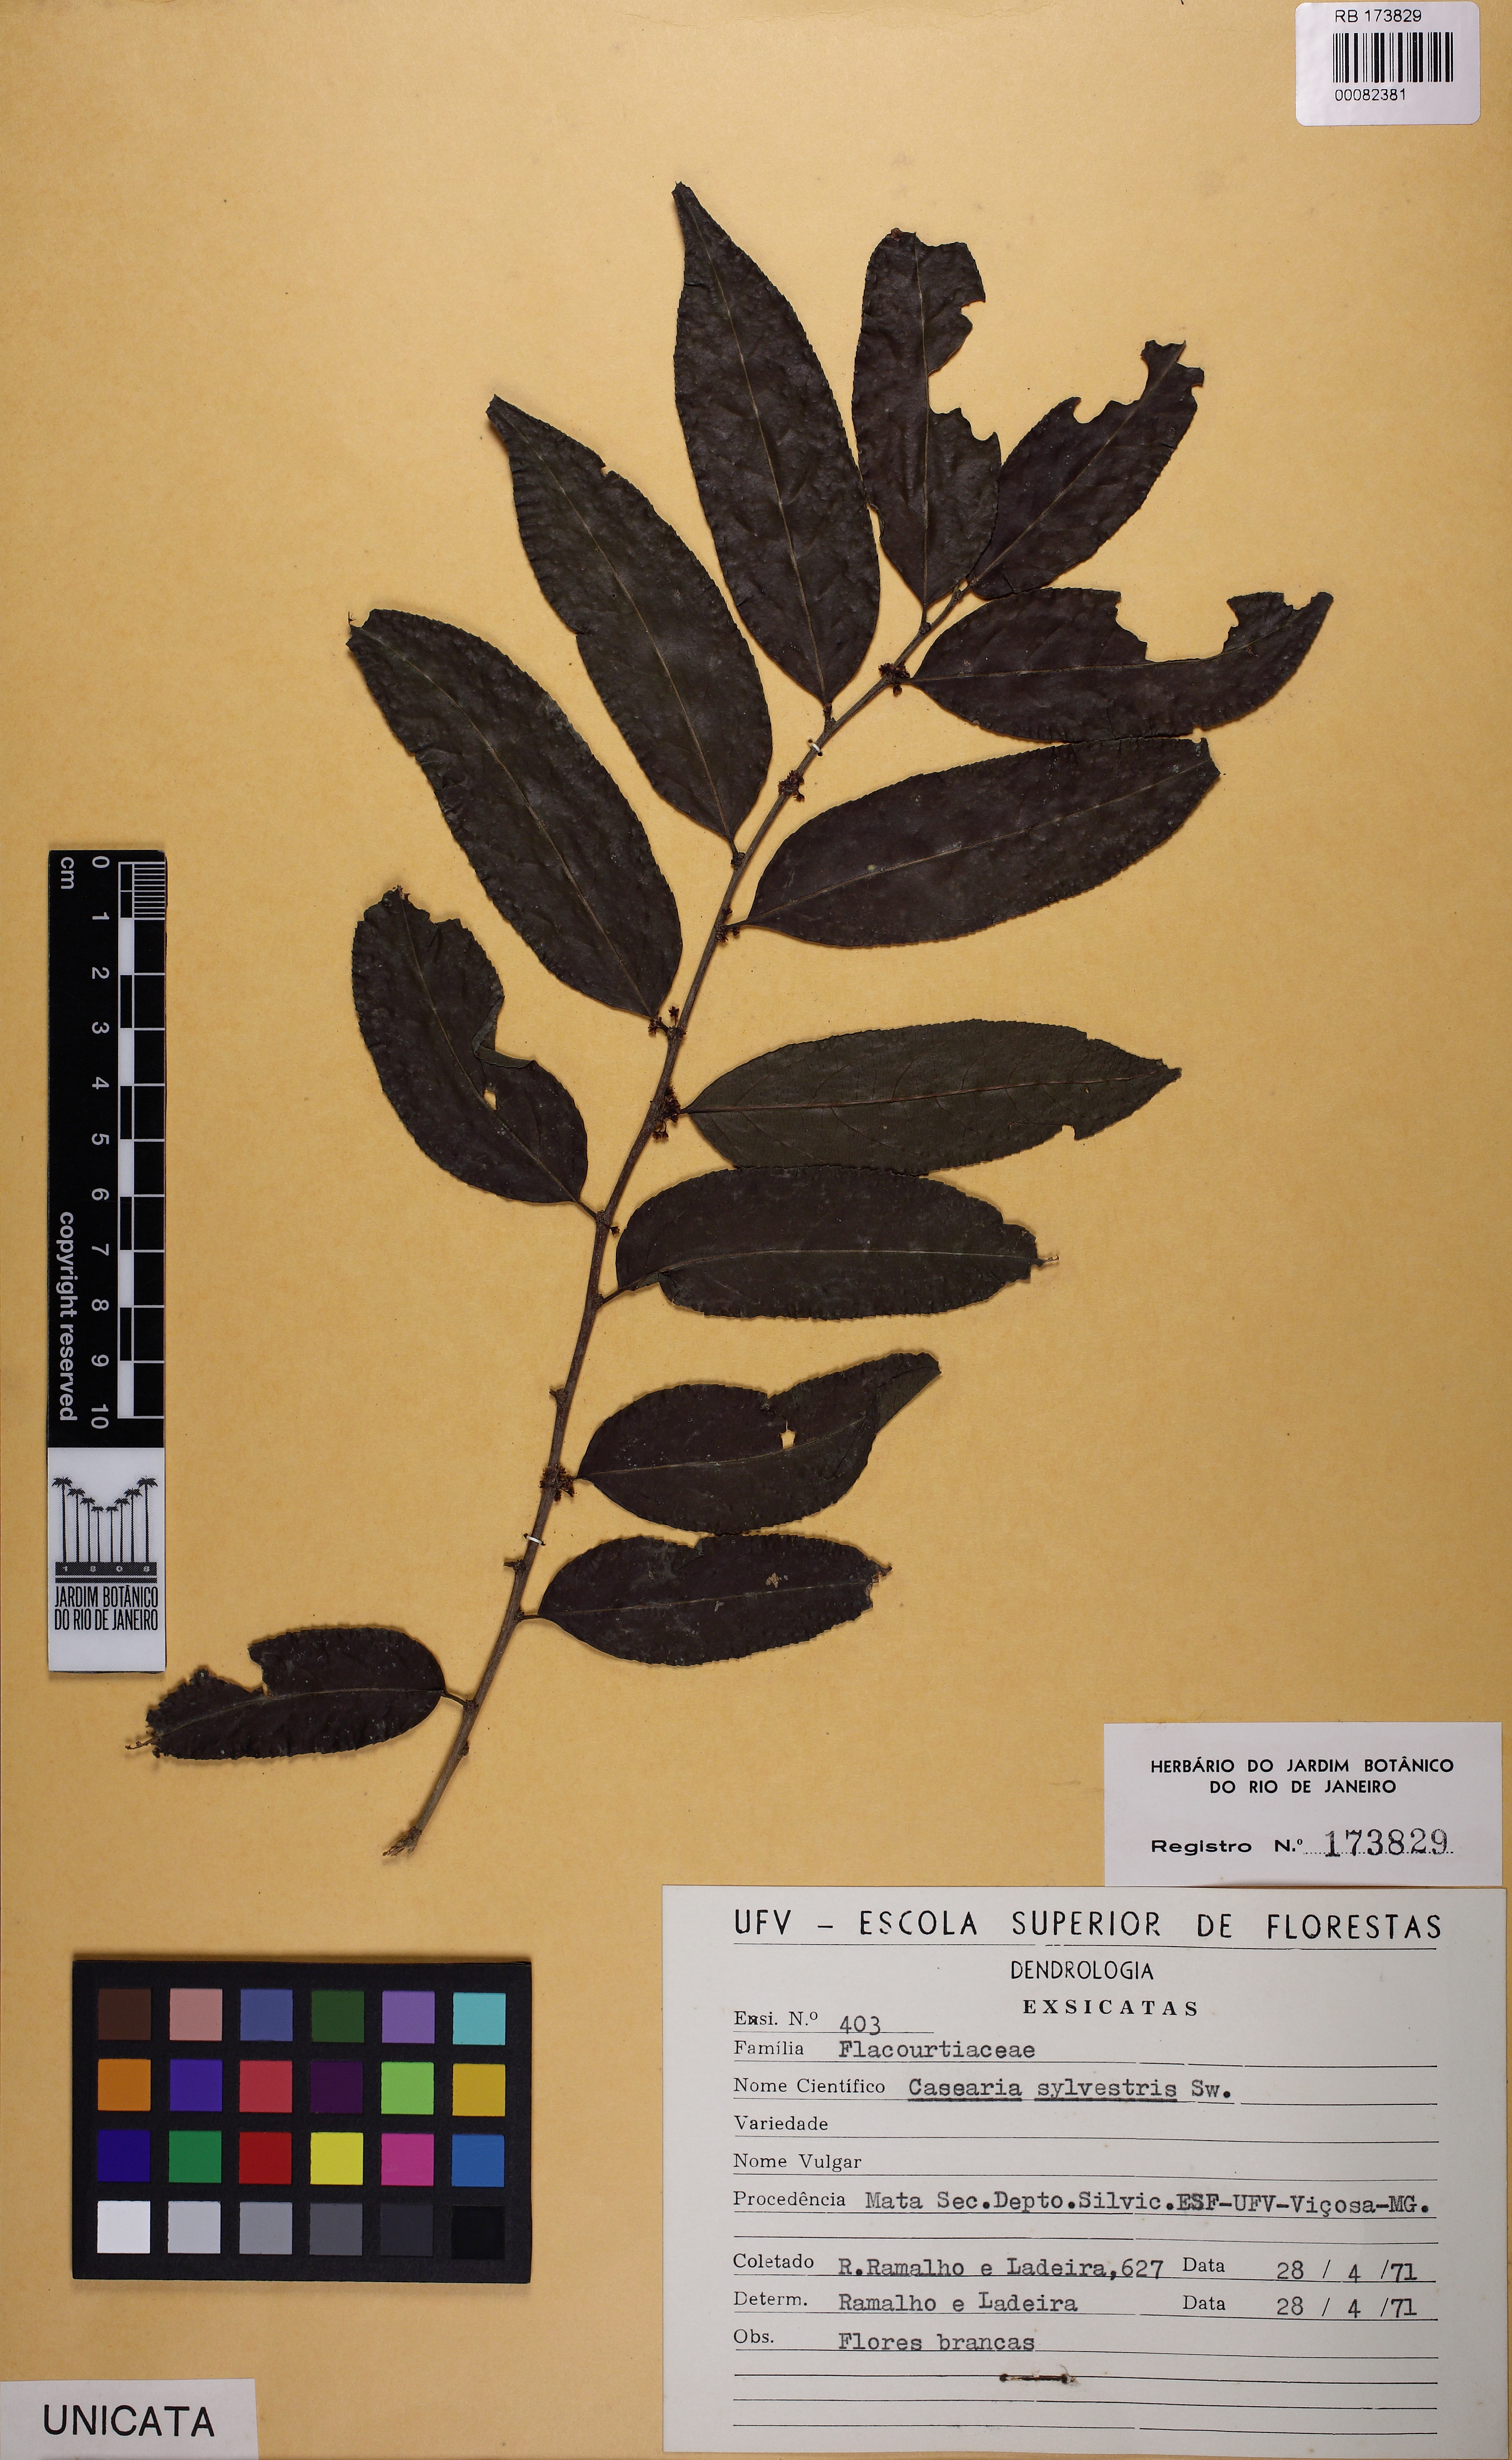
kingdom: Plantae
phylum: Tracheophyta
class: Magnoliopsida
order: Malpighiales
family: Salicaceae
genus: Casearia
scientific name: Casearia sylvestris
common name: Wild sage
